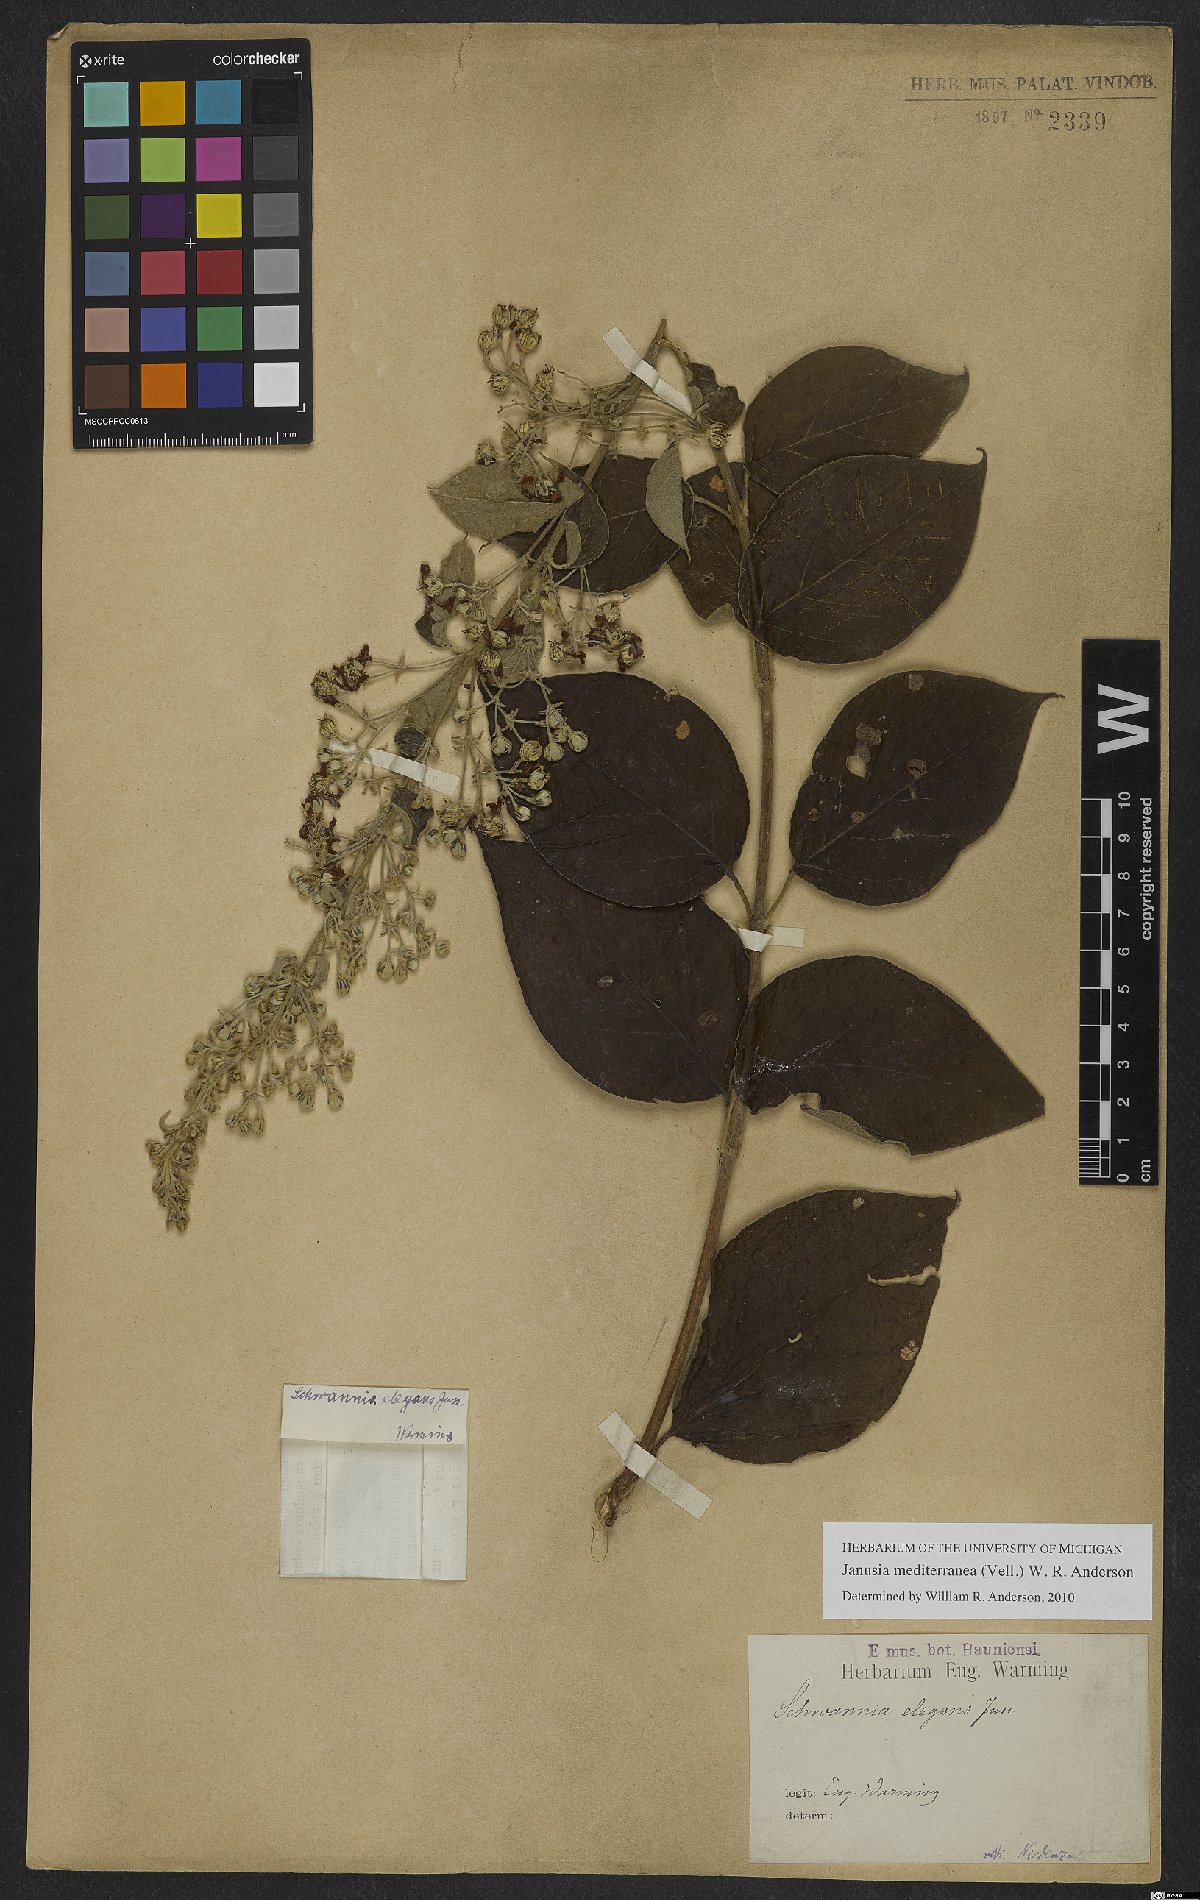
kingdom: Plantae
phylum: Tracheophyta
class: Magnoliopsida
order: Malpighiales
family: Malpighiaceae
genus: Janusia
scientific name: Janusia mediterranea
